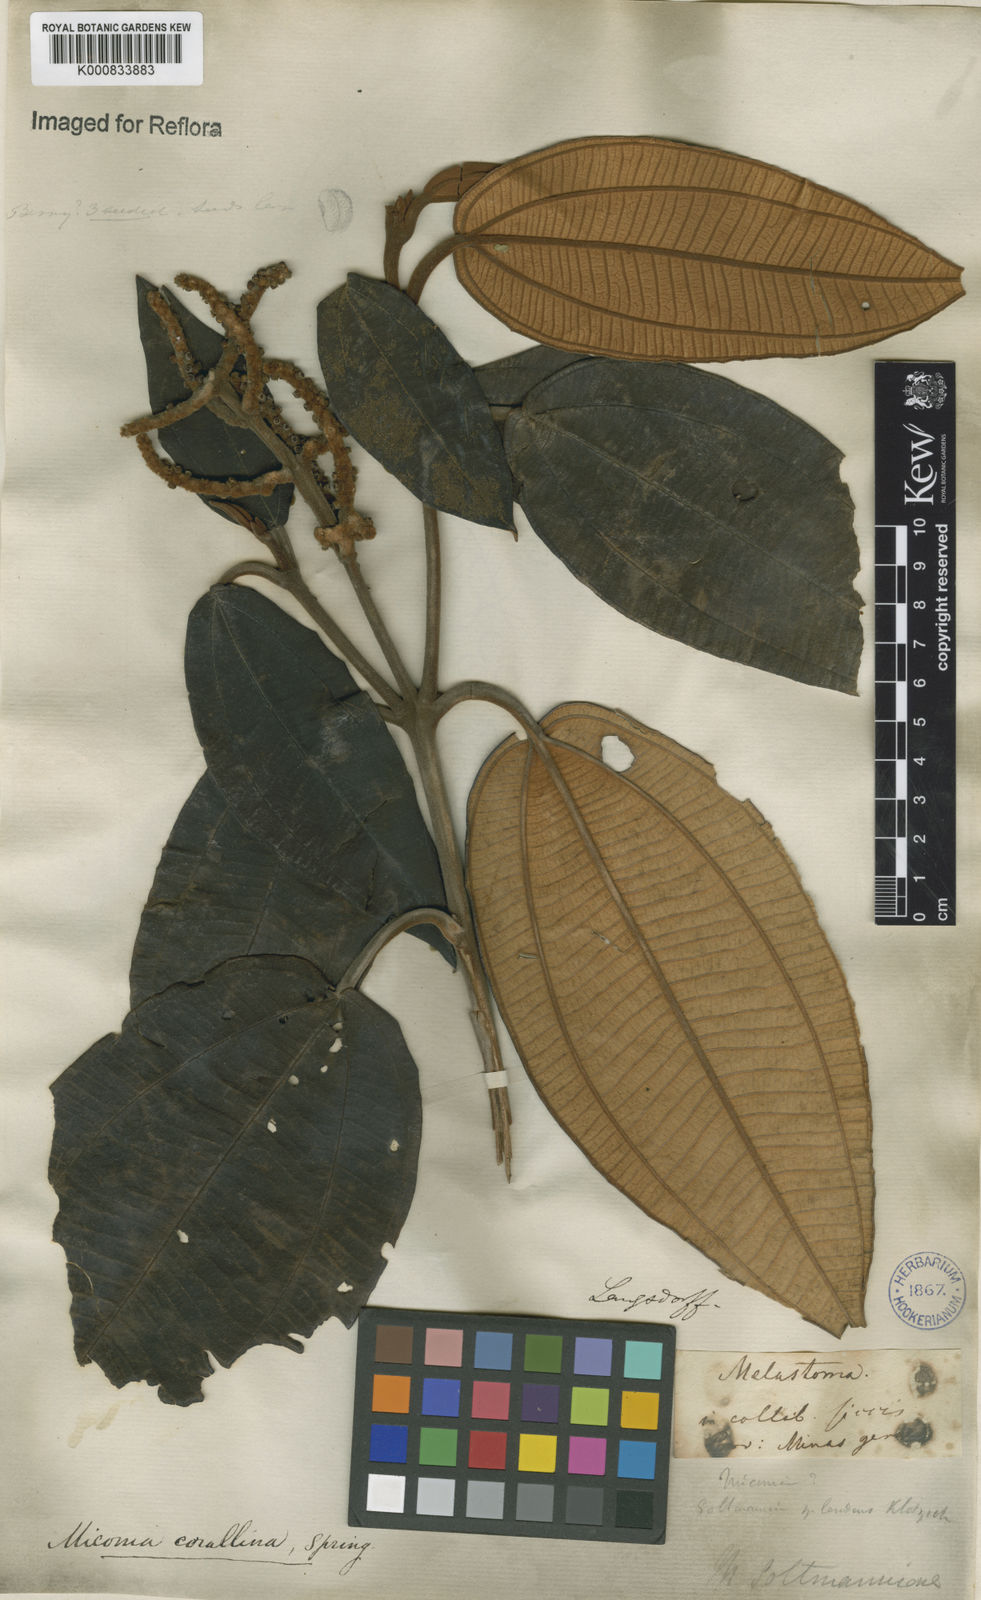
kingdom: Plantae
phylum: Tracheophyta
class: Magnoliopsida
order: Myrtales
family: Melastomataceae
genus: Miconia
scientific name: Miconia
